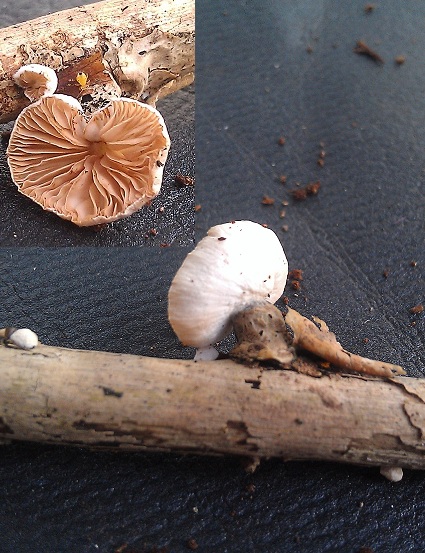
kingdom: Fungi
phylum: Basidiomycota
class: Agaricomycetes
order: Agaricales
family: Crepidotaceae
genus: Crepidotus
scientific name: Crepidotus cesatii
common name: almindelig muslingesvamp
